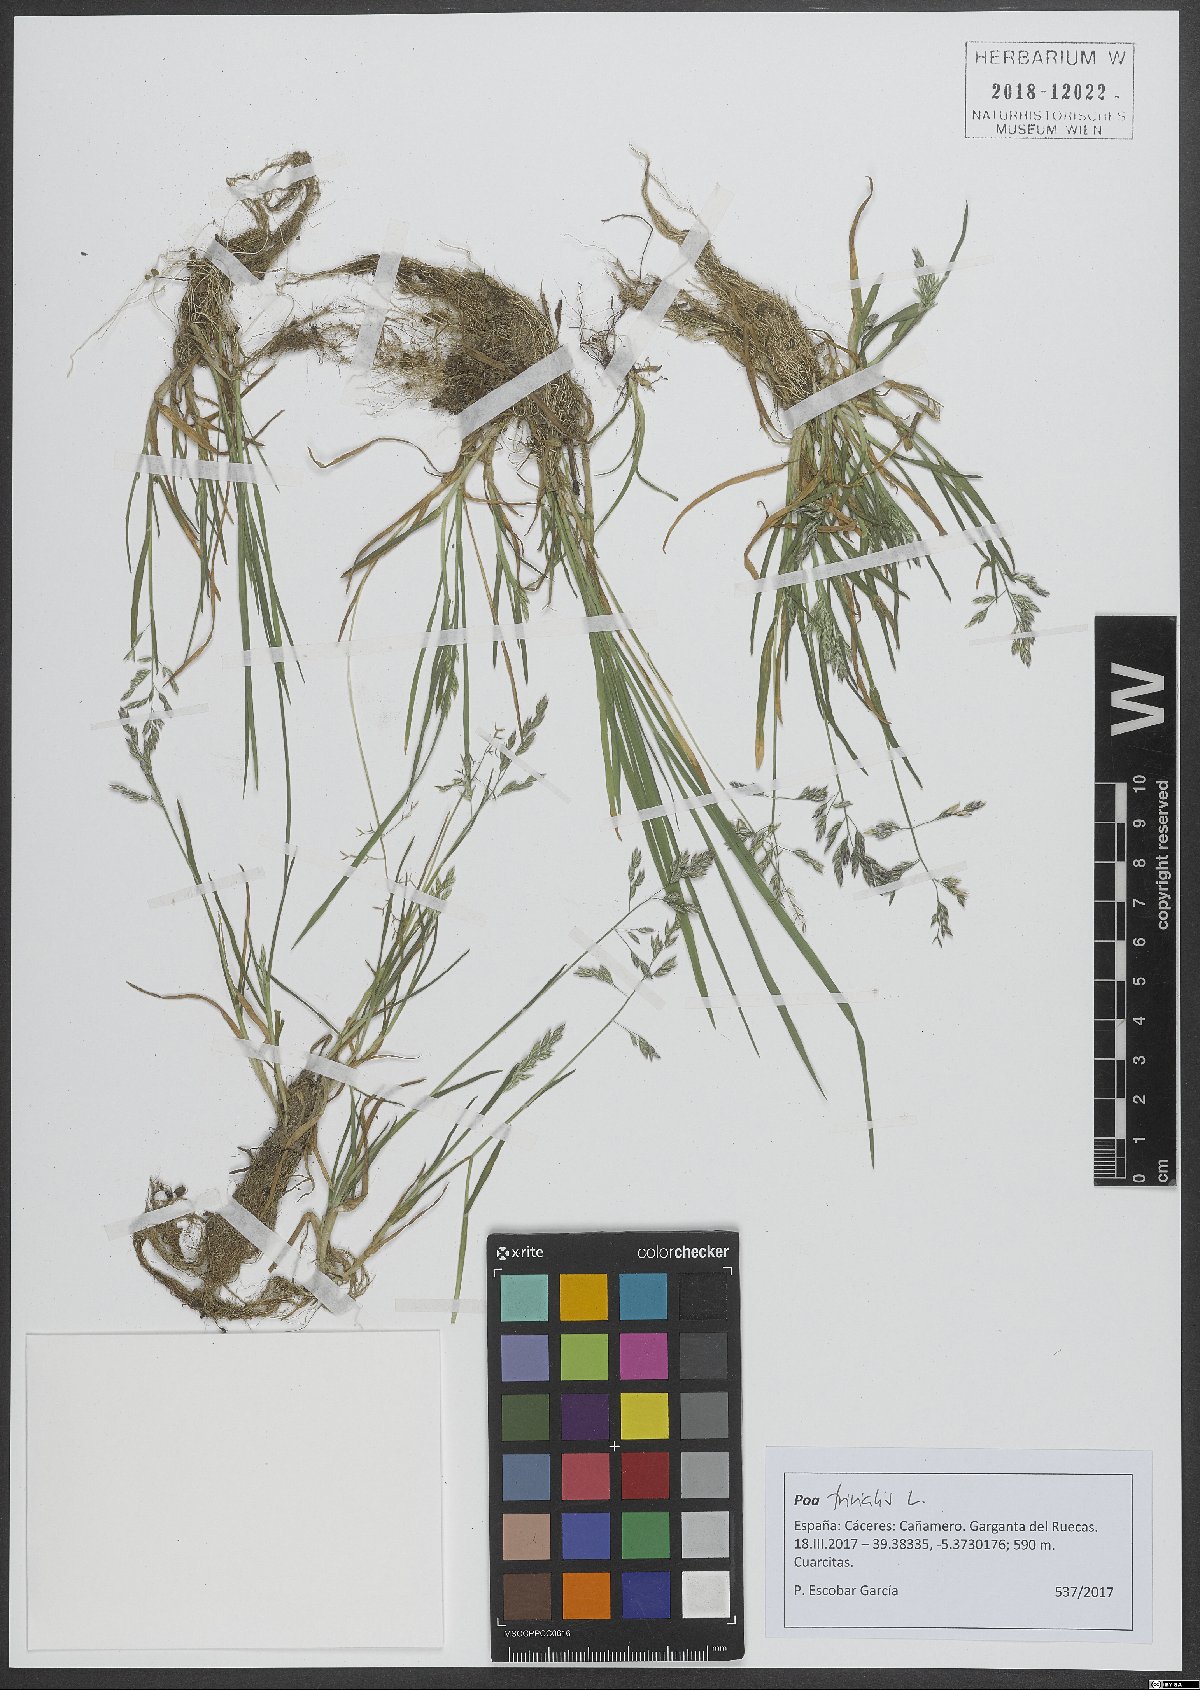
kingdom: Plantae
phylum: Tracheophyta
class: Liliopsida
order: Poales
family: Poaceae
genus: Poa
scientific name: Poa trivialis
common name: Rough bluegrass
